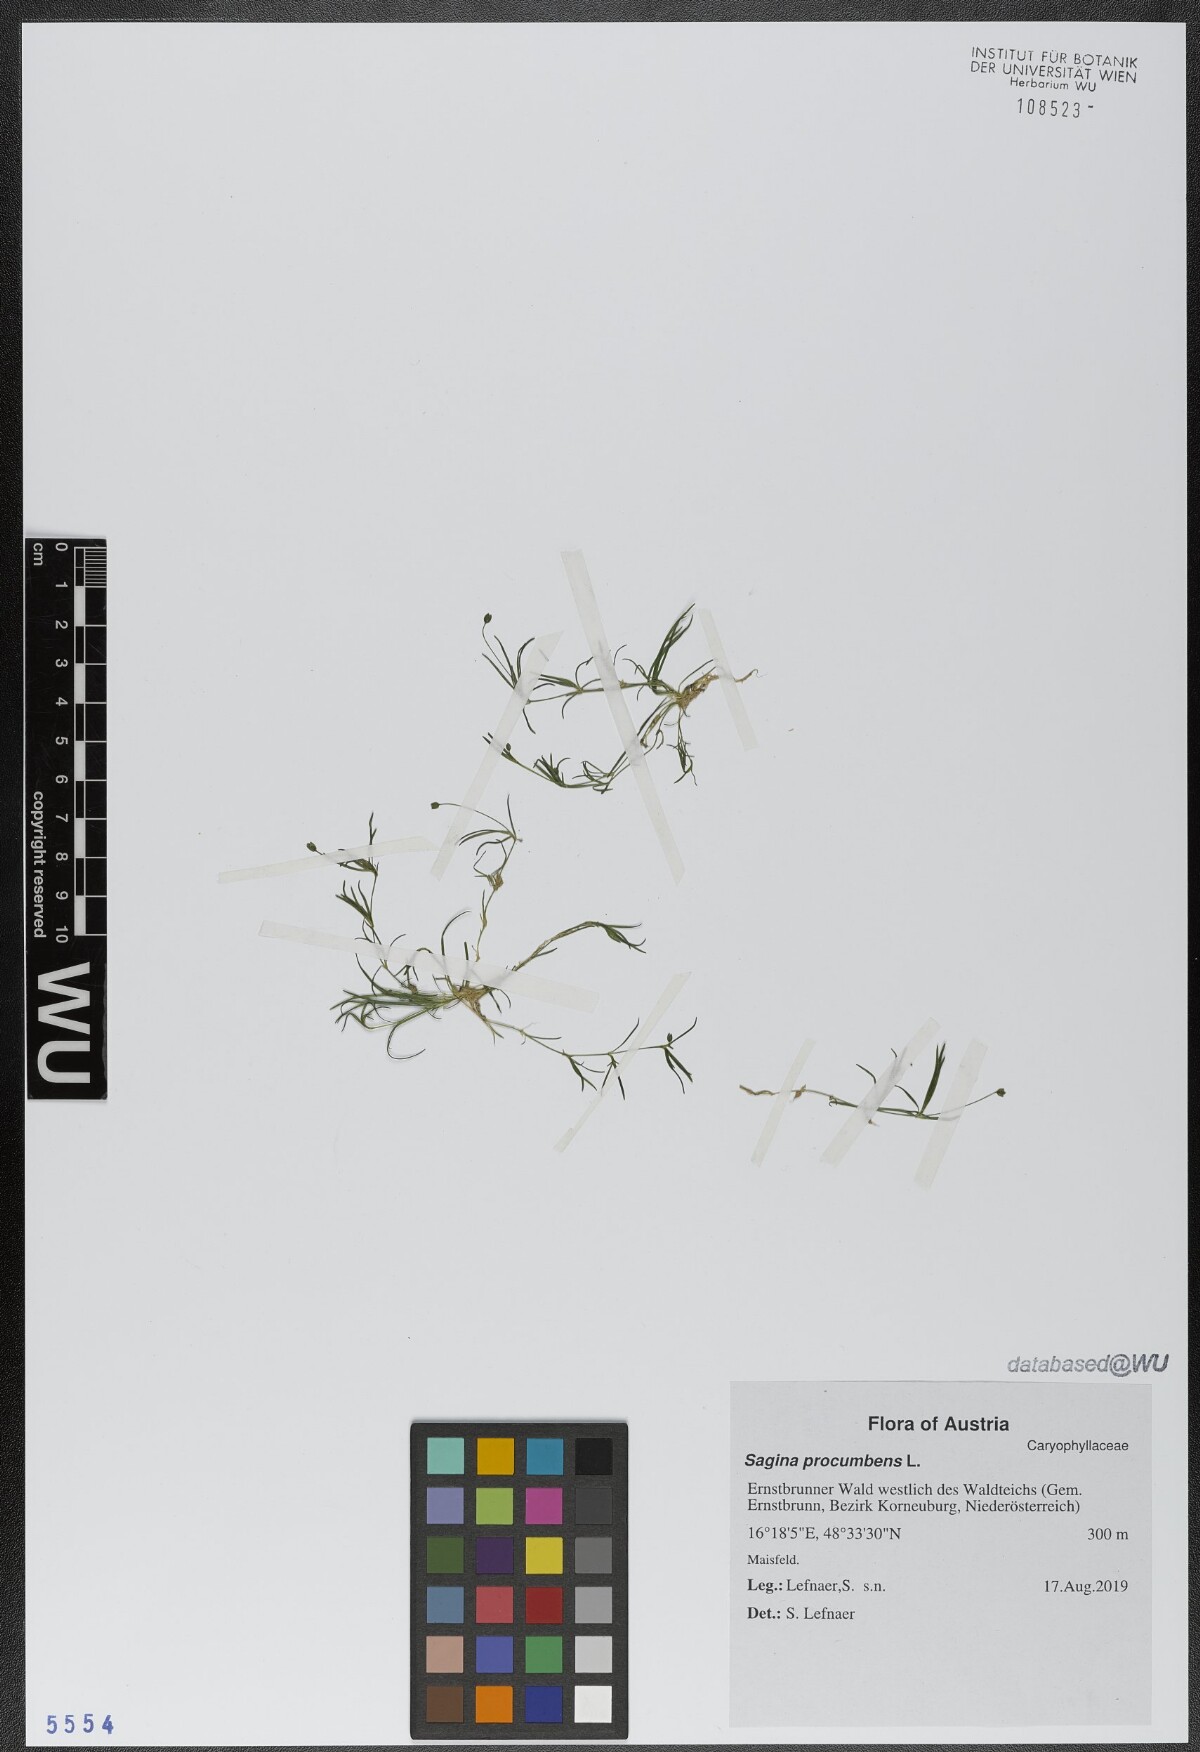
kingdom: Plantae
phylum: Tracheophyta
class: Magnoliopsida
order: Caryophyllales
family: Caryophyllaceae
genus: Sagina
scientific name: Sagina procumbens
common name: Procumbent pearlwort
